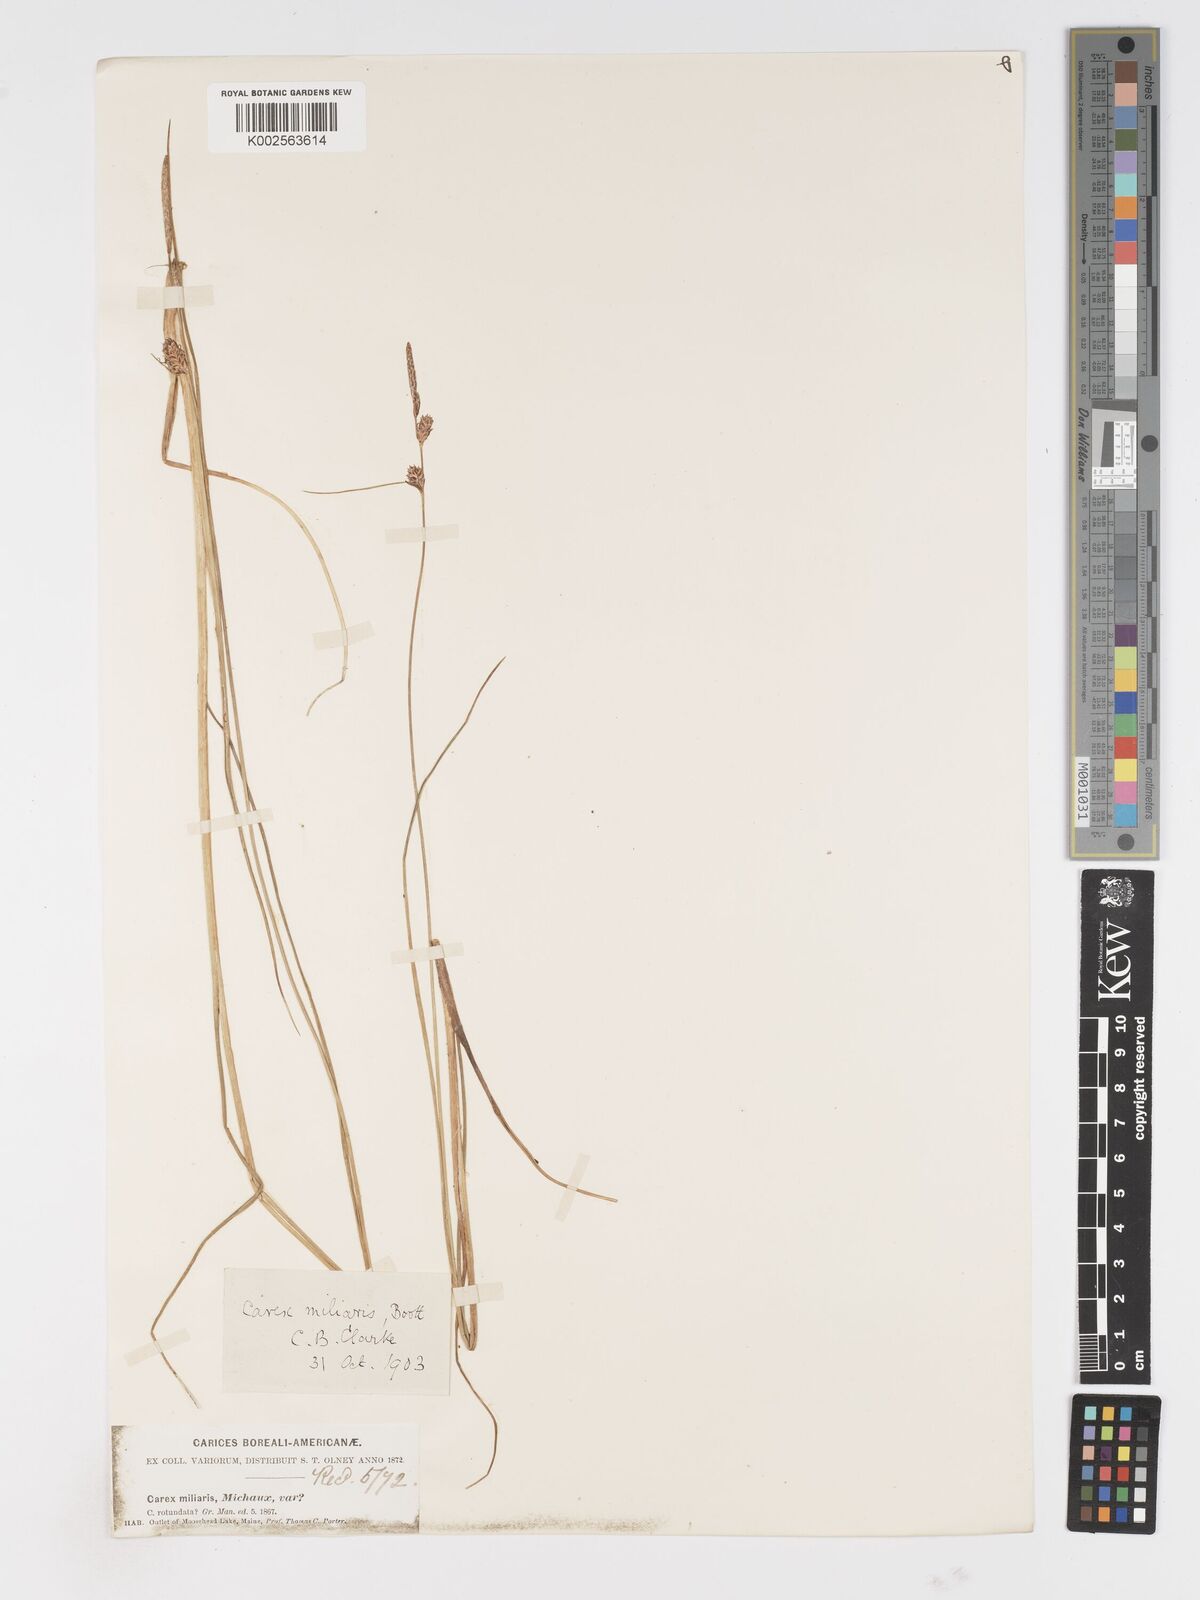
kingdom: Plantae
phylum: Tracheophyta
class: Liliopsida
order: Poales
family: Cyperaceae
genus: Carex
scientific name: Carex miliaris
